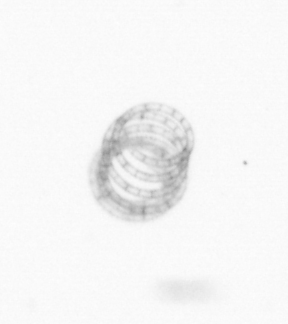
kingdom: Chromista
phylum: Ochrophyta
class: Bacillariophyceae
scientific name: Bacillariophyceae
